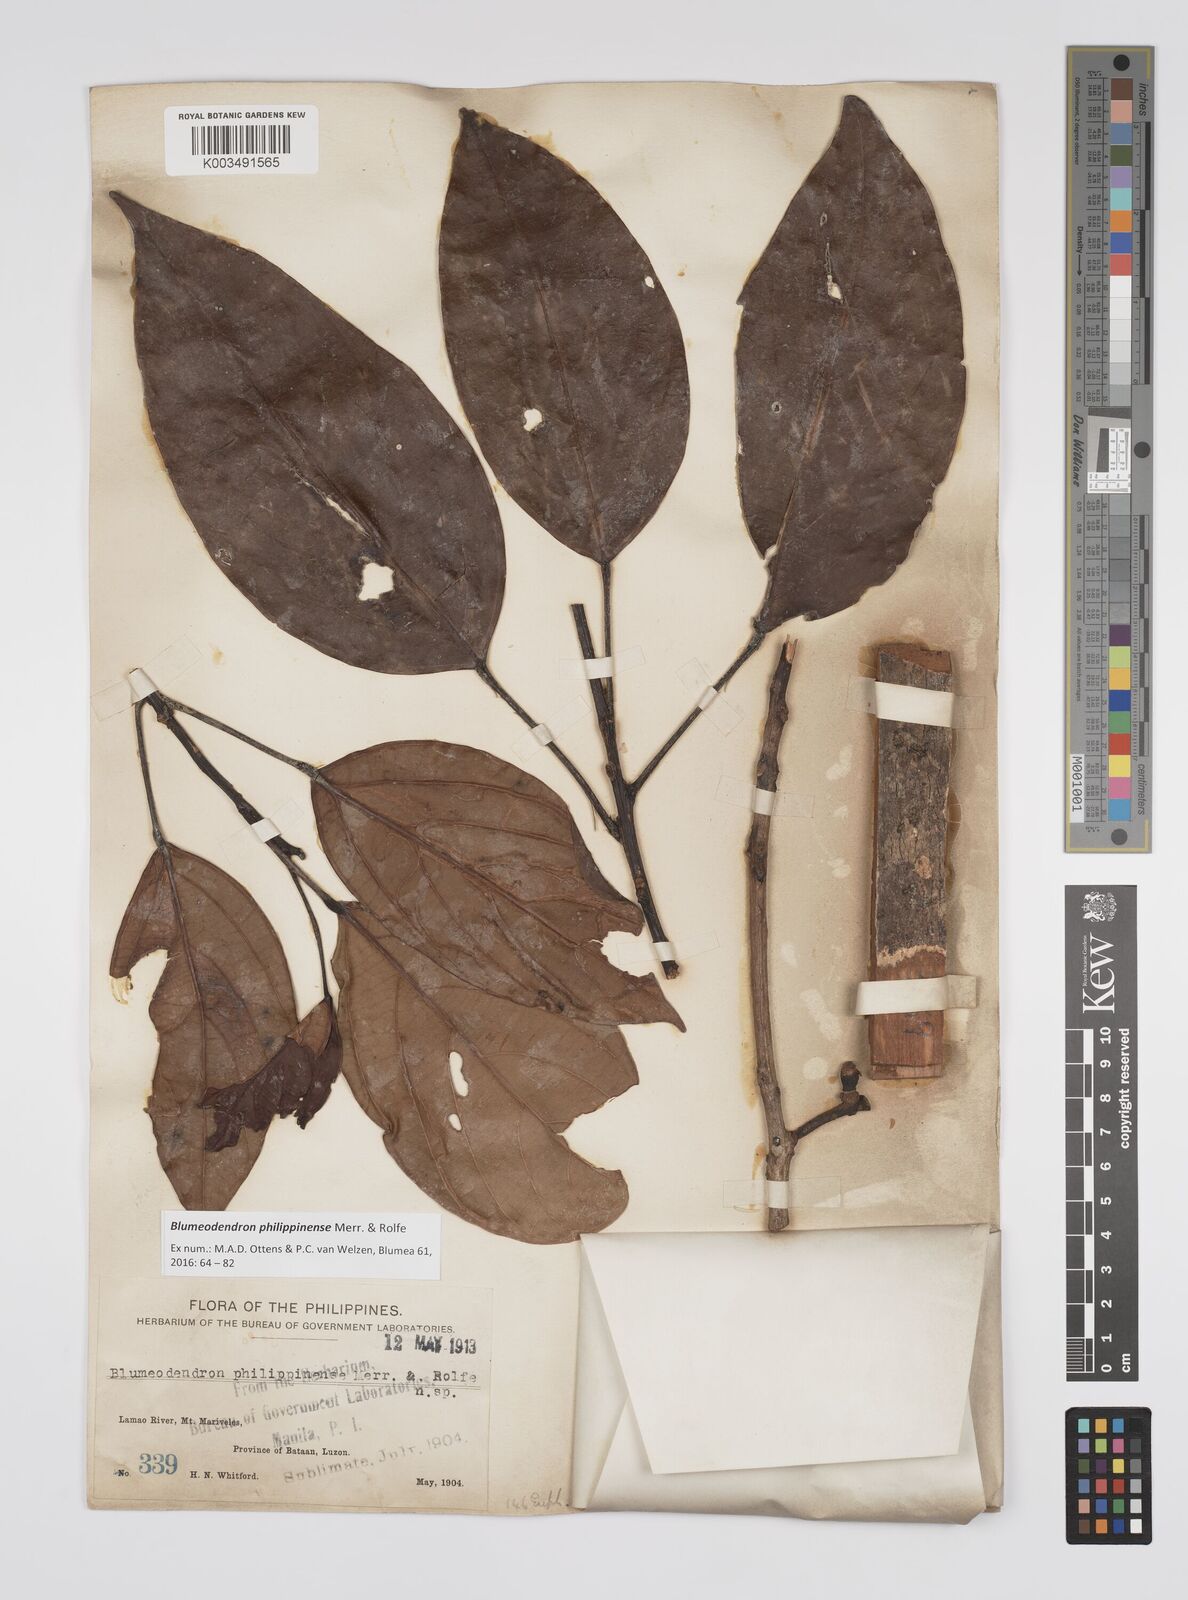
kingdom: Plantae
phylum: Tracheophyta
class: Magnoliopsida
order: Malpighiales
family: Euphorbiaceae
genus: Blumeodendron
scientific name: Blumeodendron philippinense
